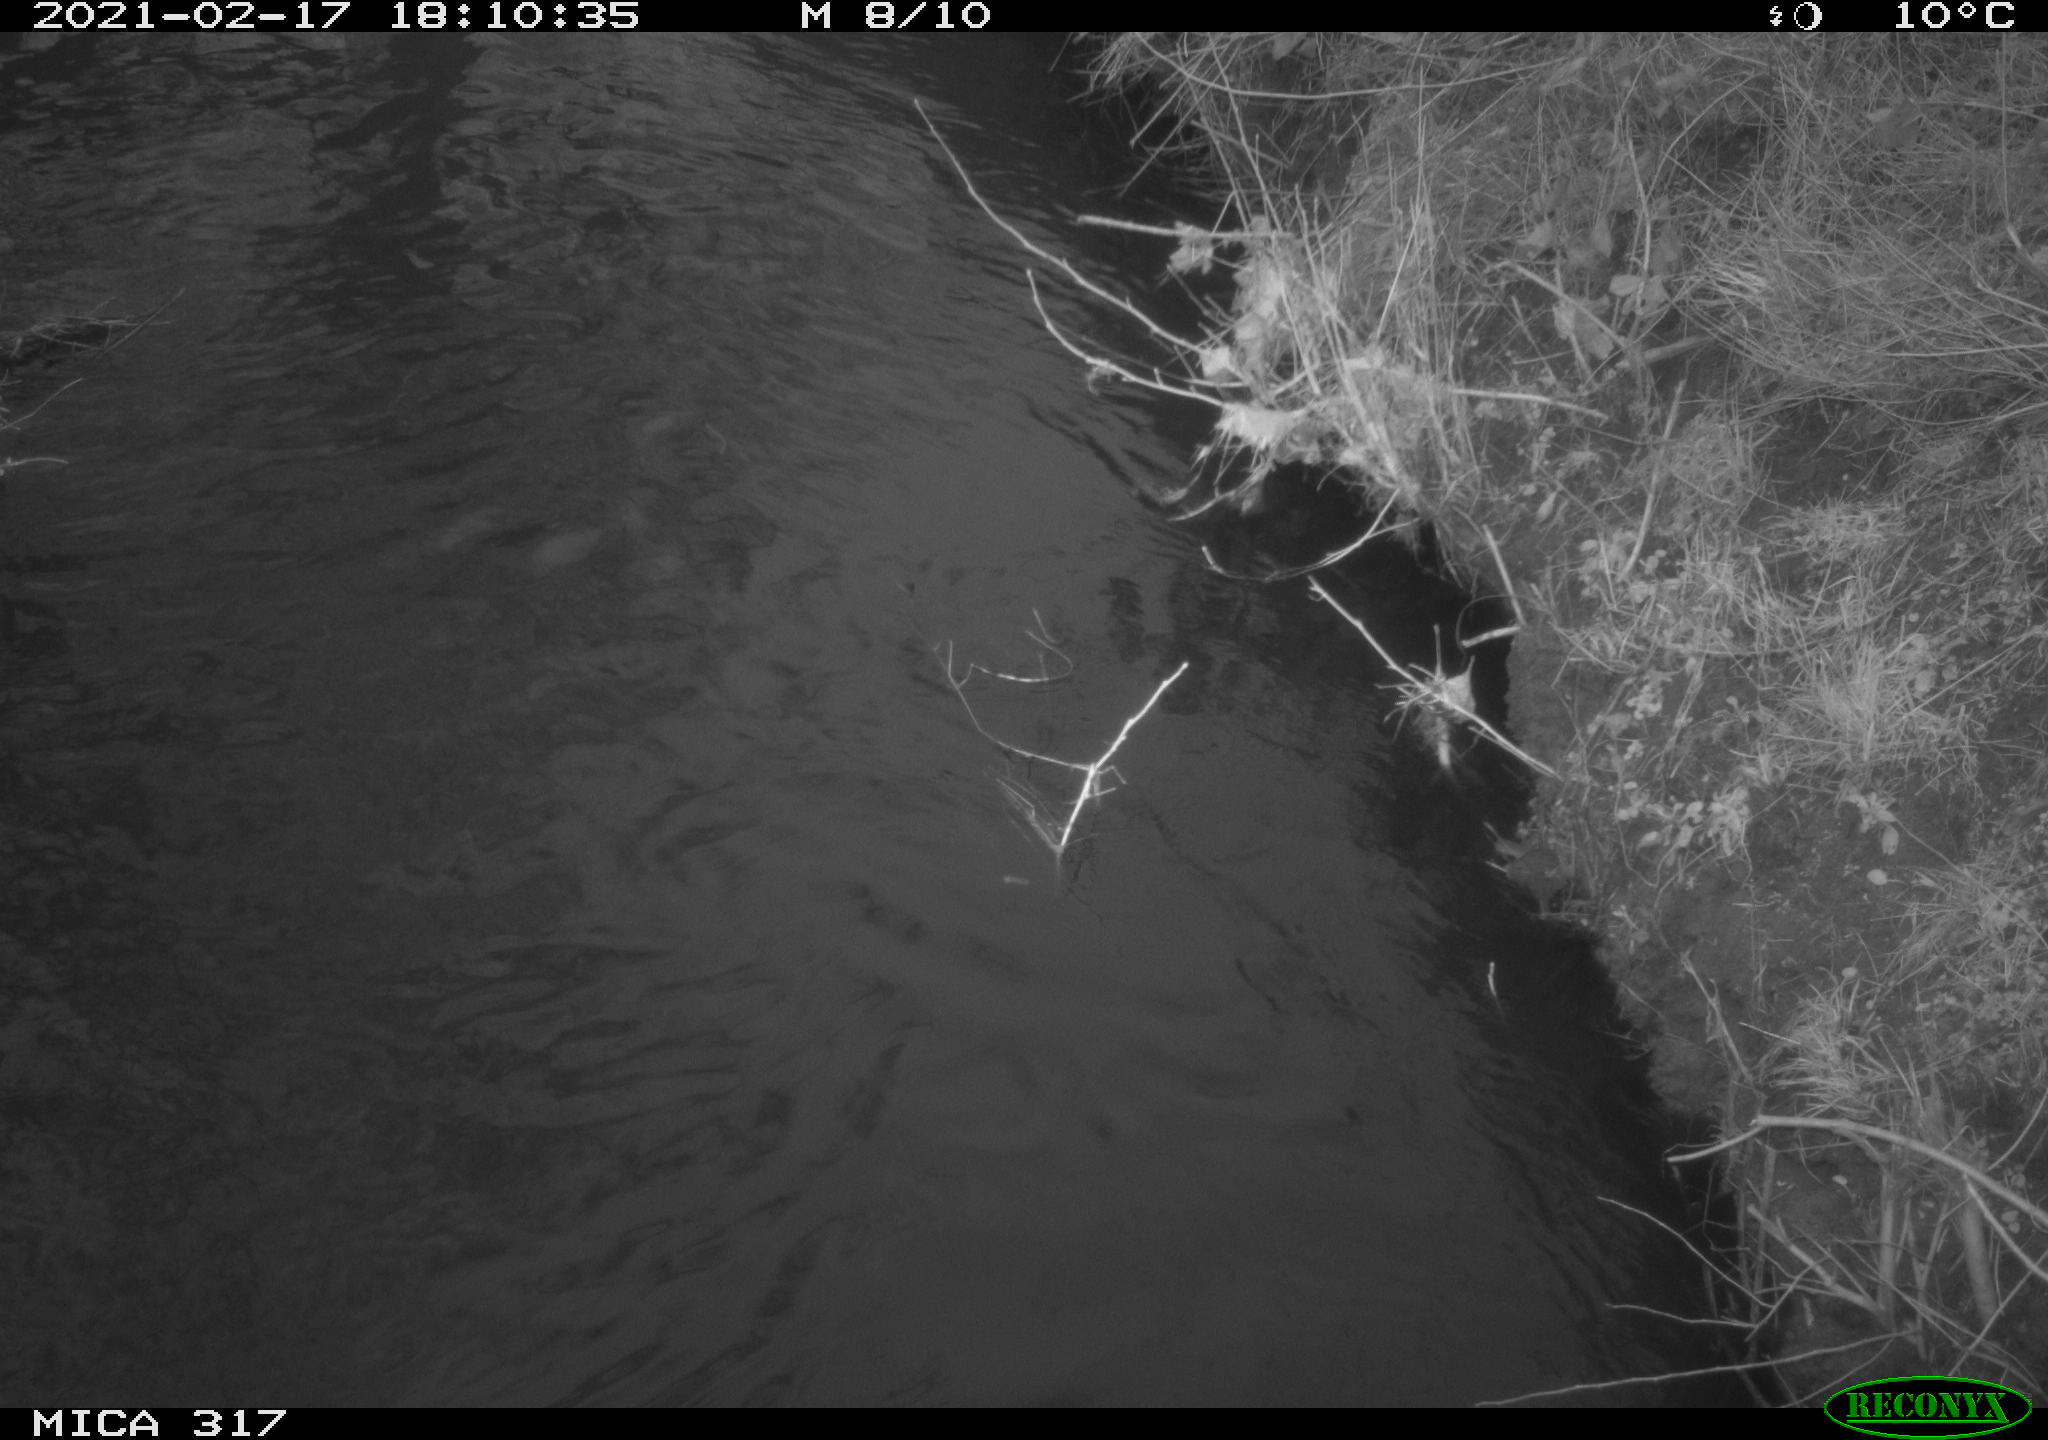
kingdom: Animalia
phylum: Chordata
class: Aves
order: Anseriformes
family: Anatidae
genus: Anas
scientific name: Anas platyrhynchos
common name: Mallard
